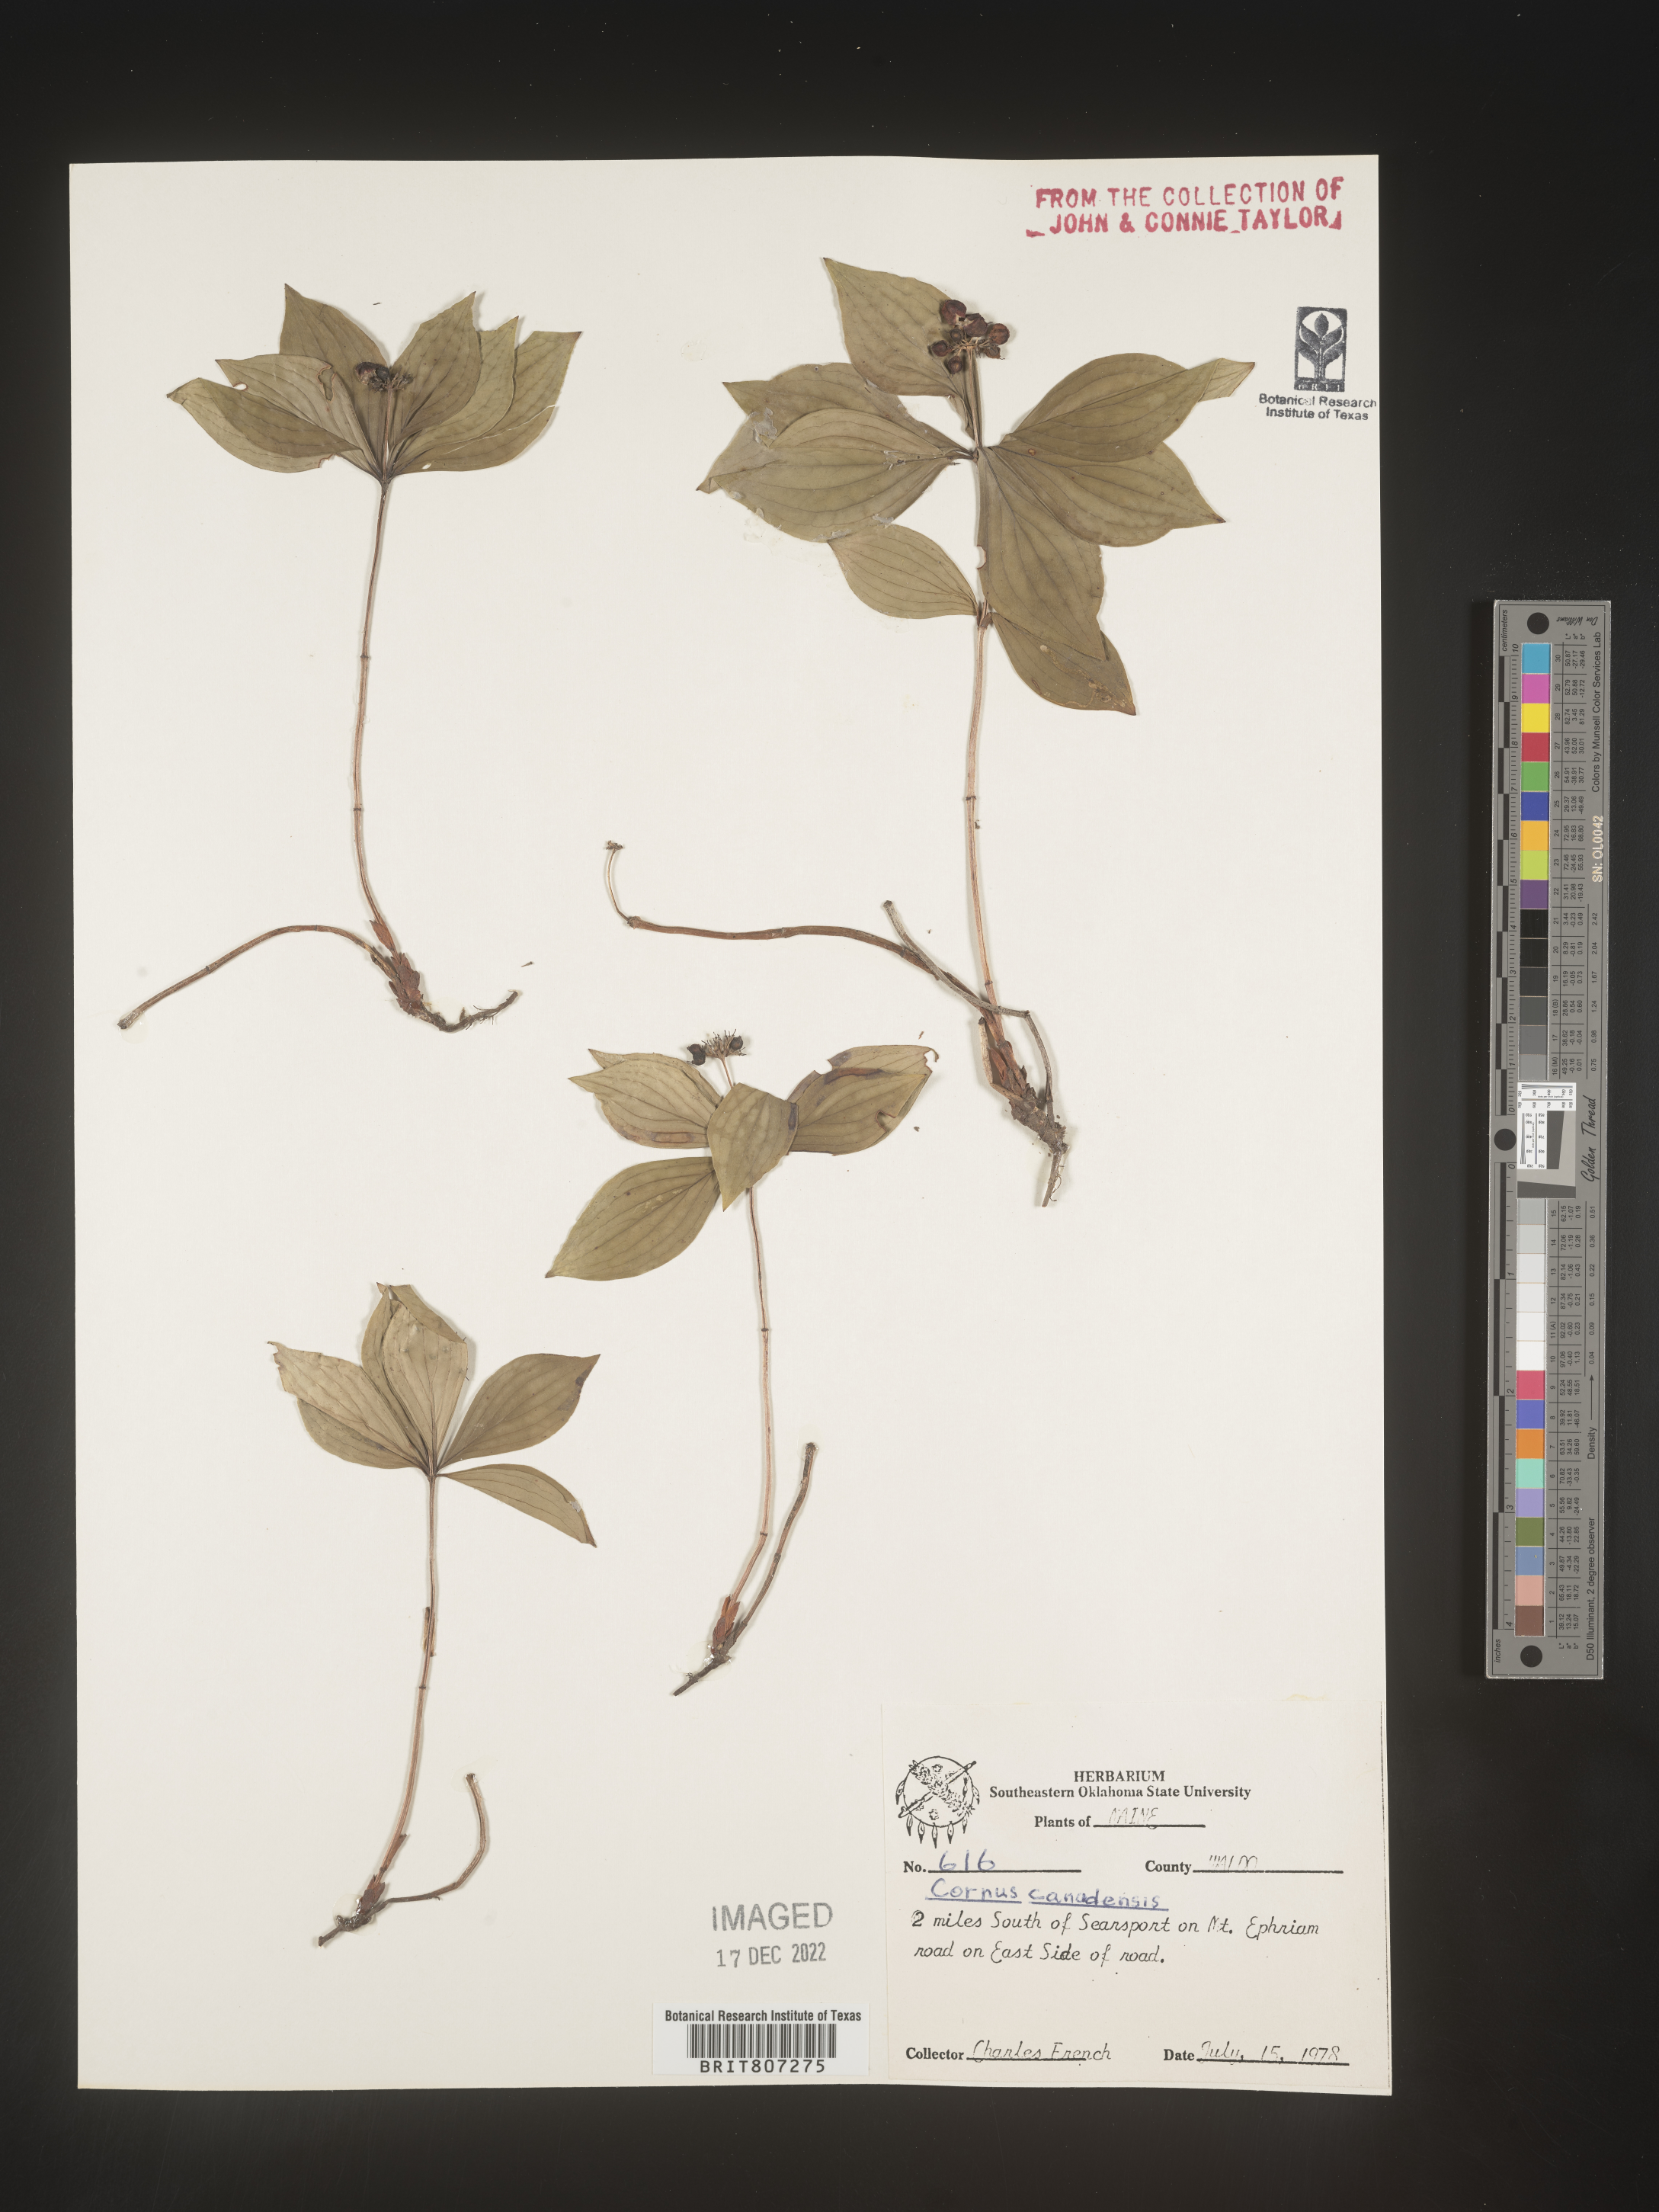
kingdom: Plantae
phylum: Tracheophyta
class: Magnoliopsida
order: Cornales
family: Cornaceae
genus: Cornus
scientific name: Cornus canadensis
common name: Creeping dogwood
